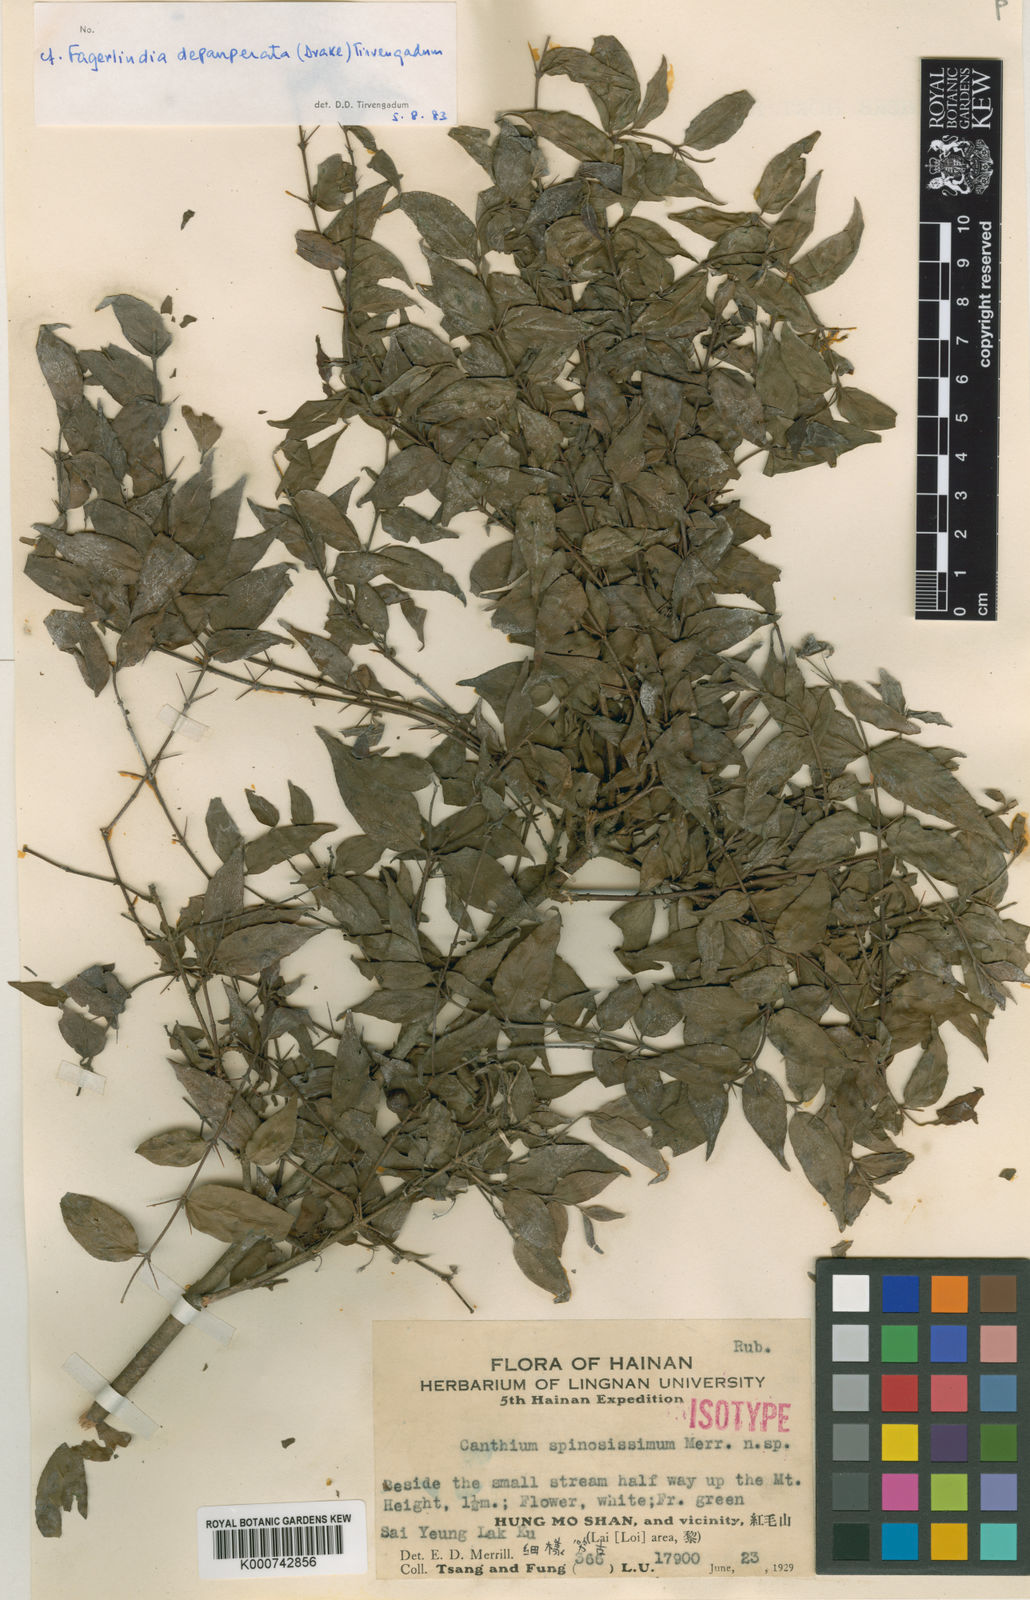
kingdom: Plantae
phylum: Tracheophyta
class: Magnoliopsida
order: Gentianales
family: Rubiaceae
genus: Benkara
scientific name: Benkara
